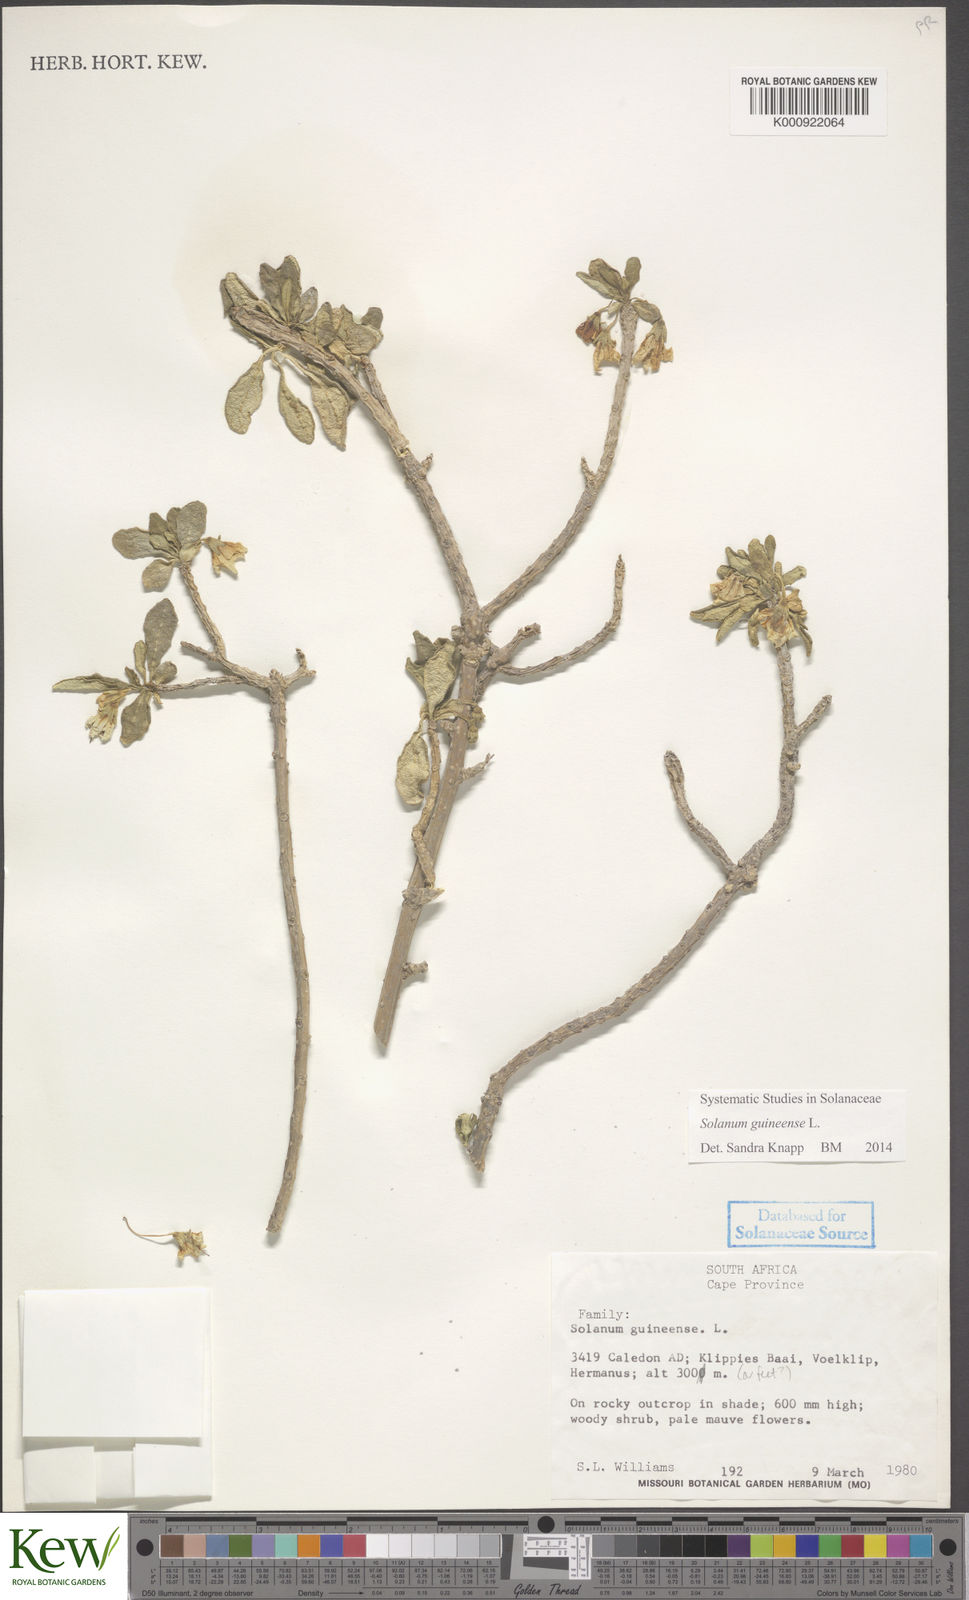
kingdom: Plantae
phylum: Tracheophyta
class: Magnoliopsida
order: Solanales
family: Solanaceae
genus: Solanum
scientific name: Solanum guineense
